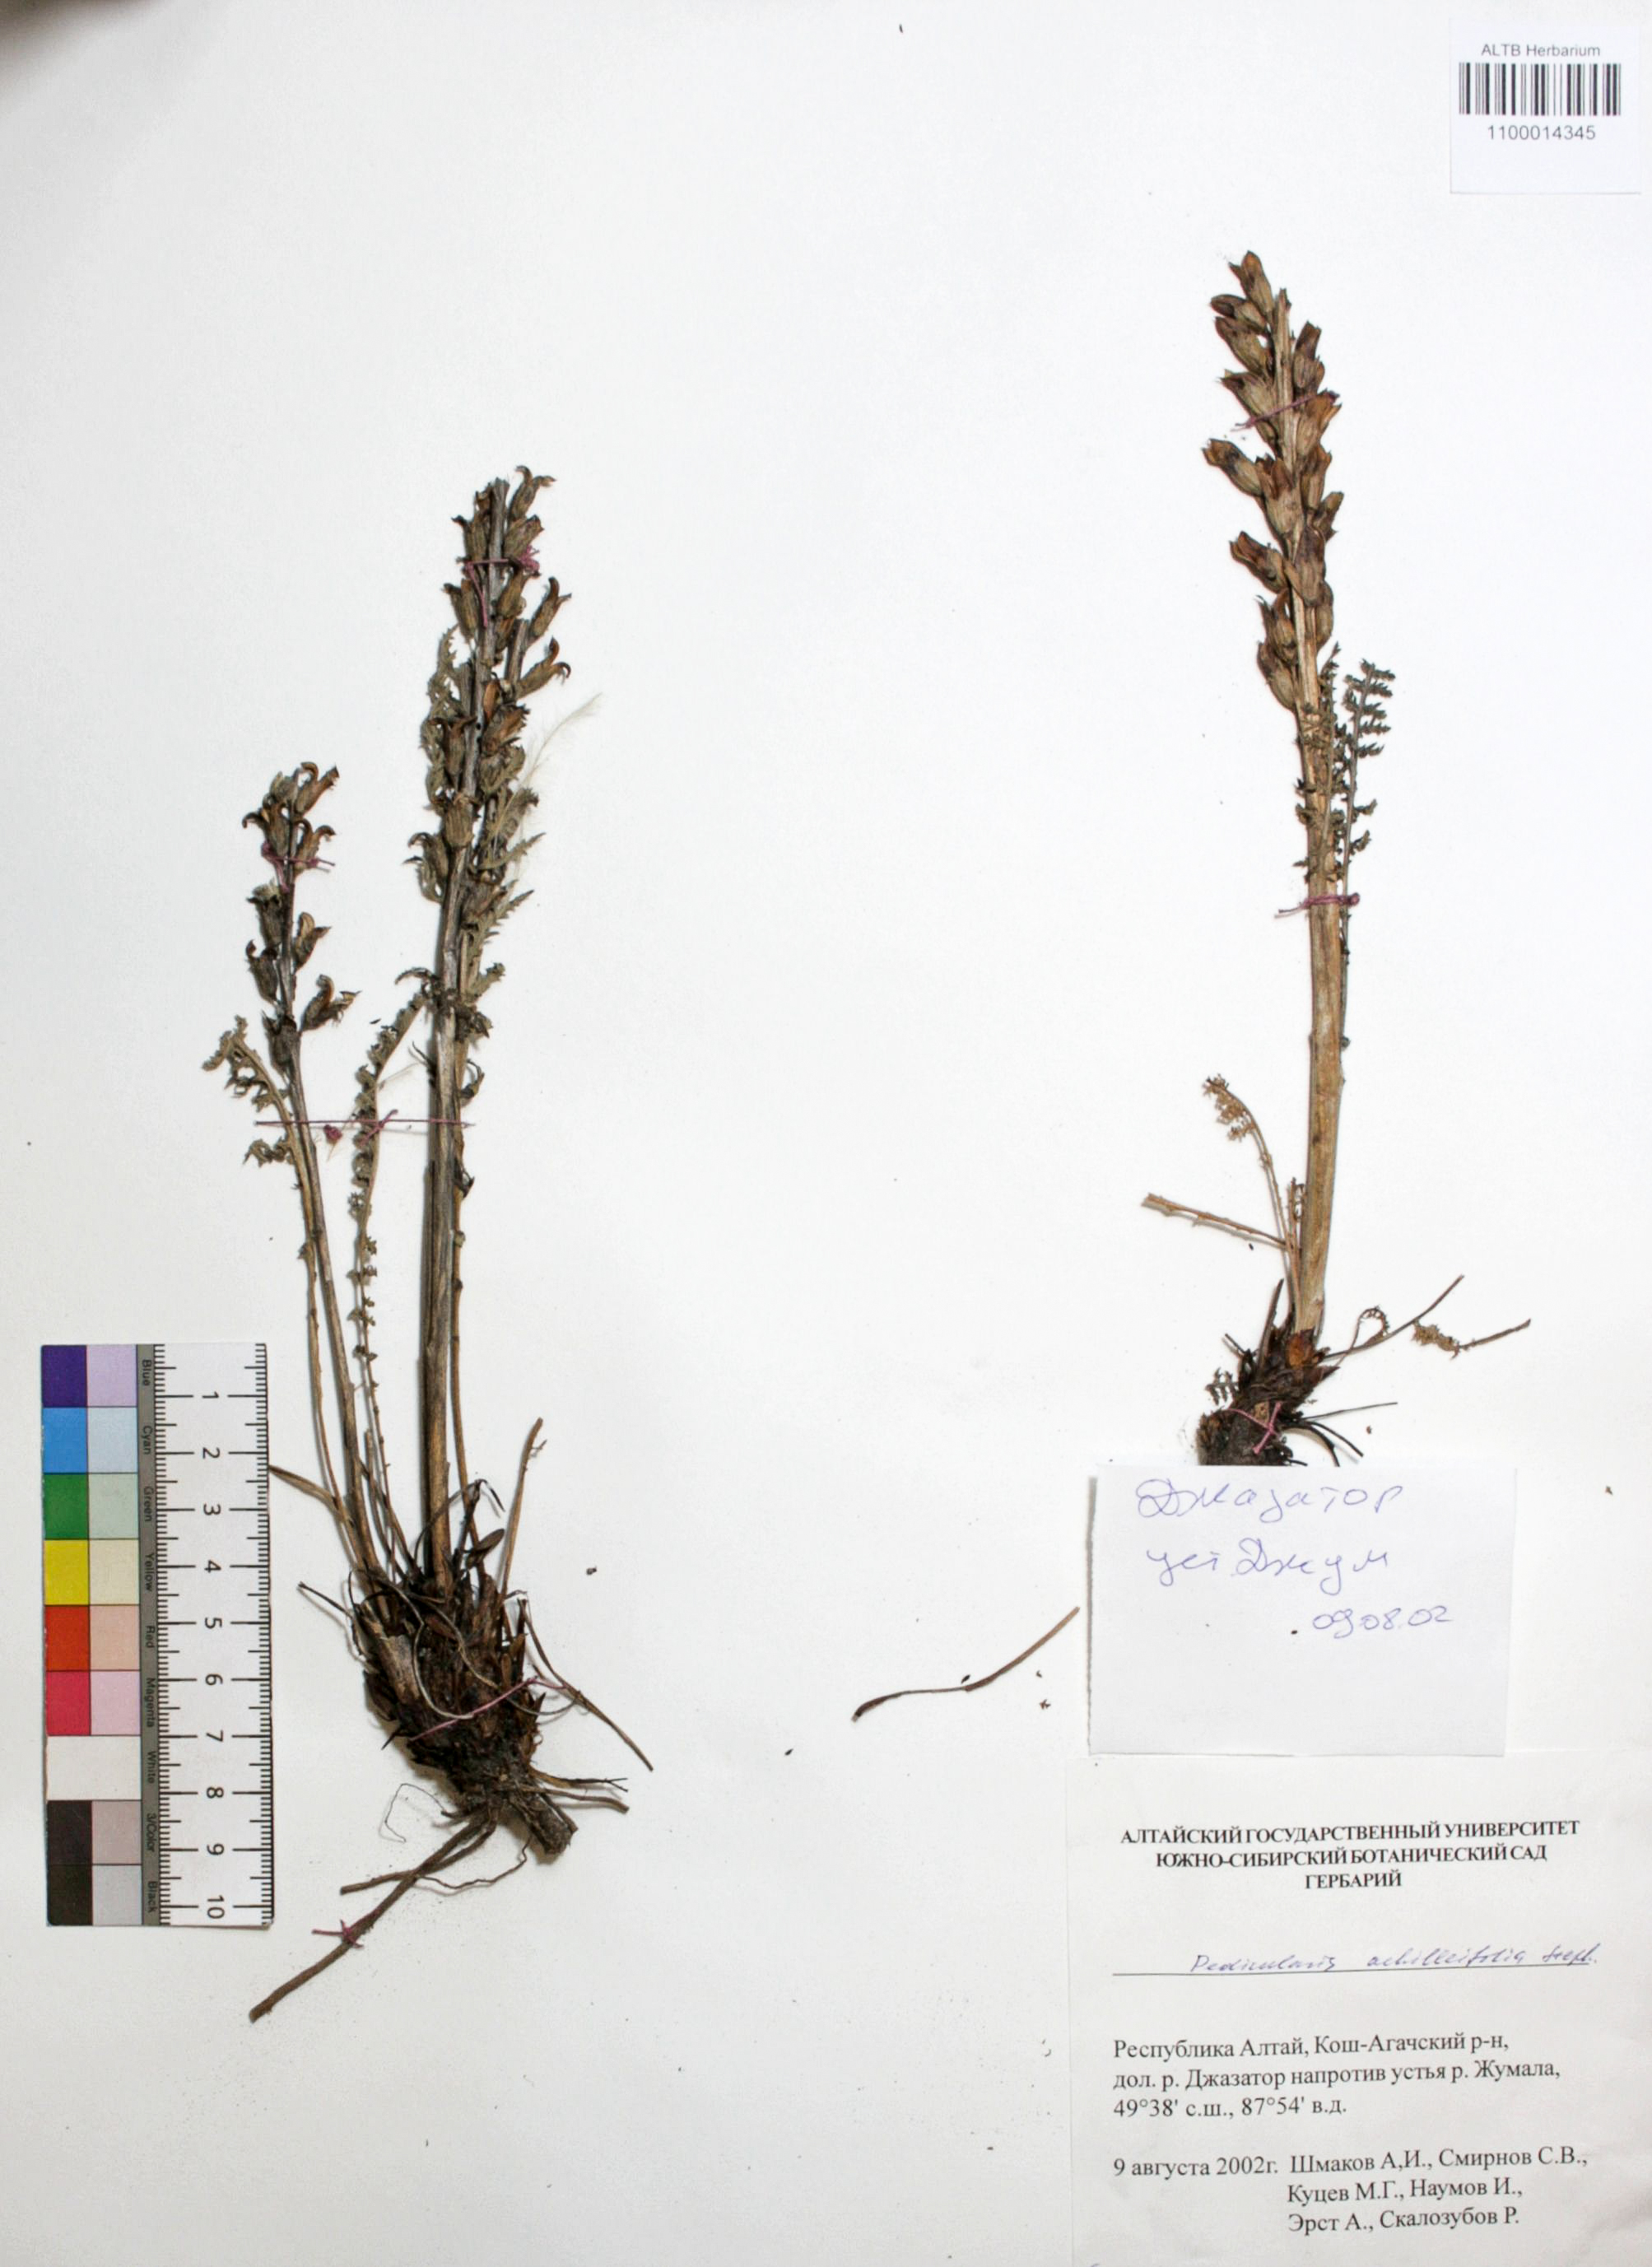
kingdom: Plantae
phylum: Tracheophyta
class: Magnoliopsida
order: Lamiales
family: Orobanchaceae
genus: Pedicularis
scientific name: Pedicularis achilleifolia
